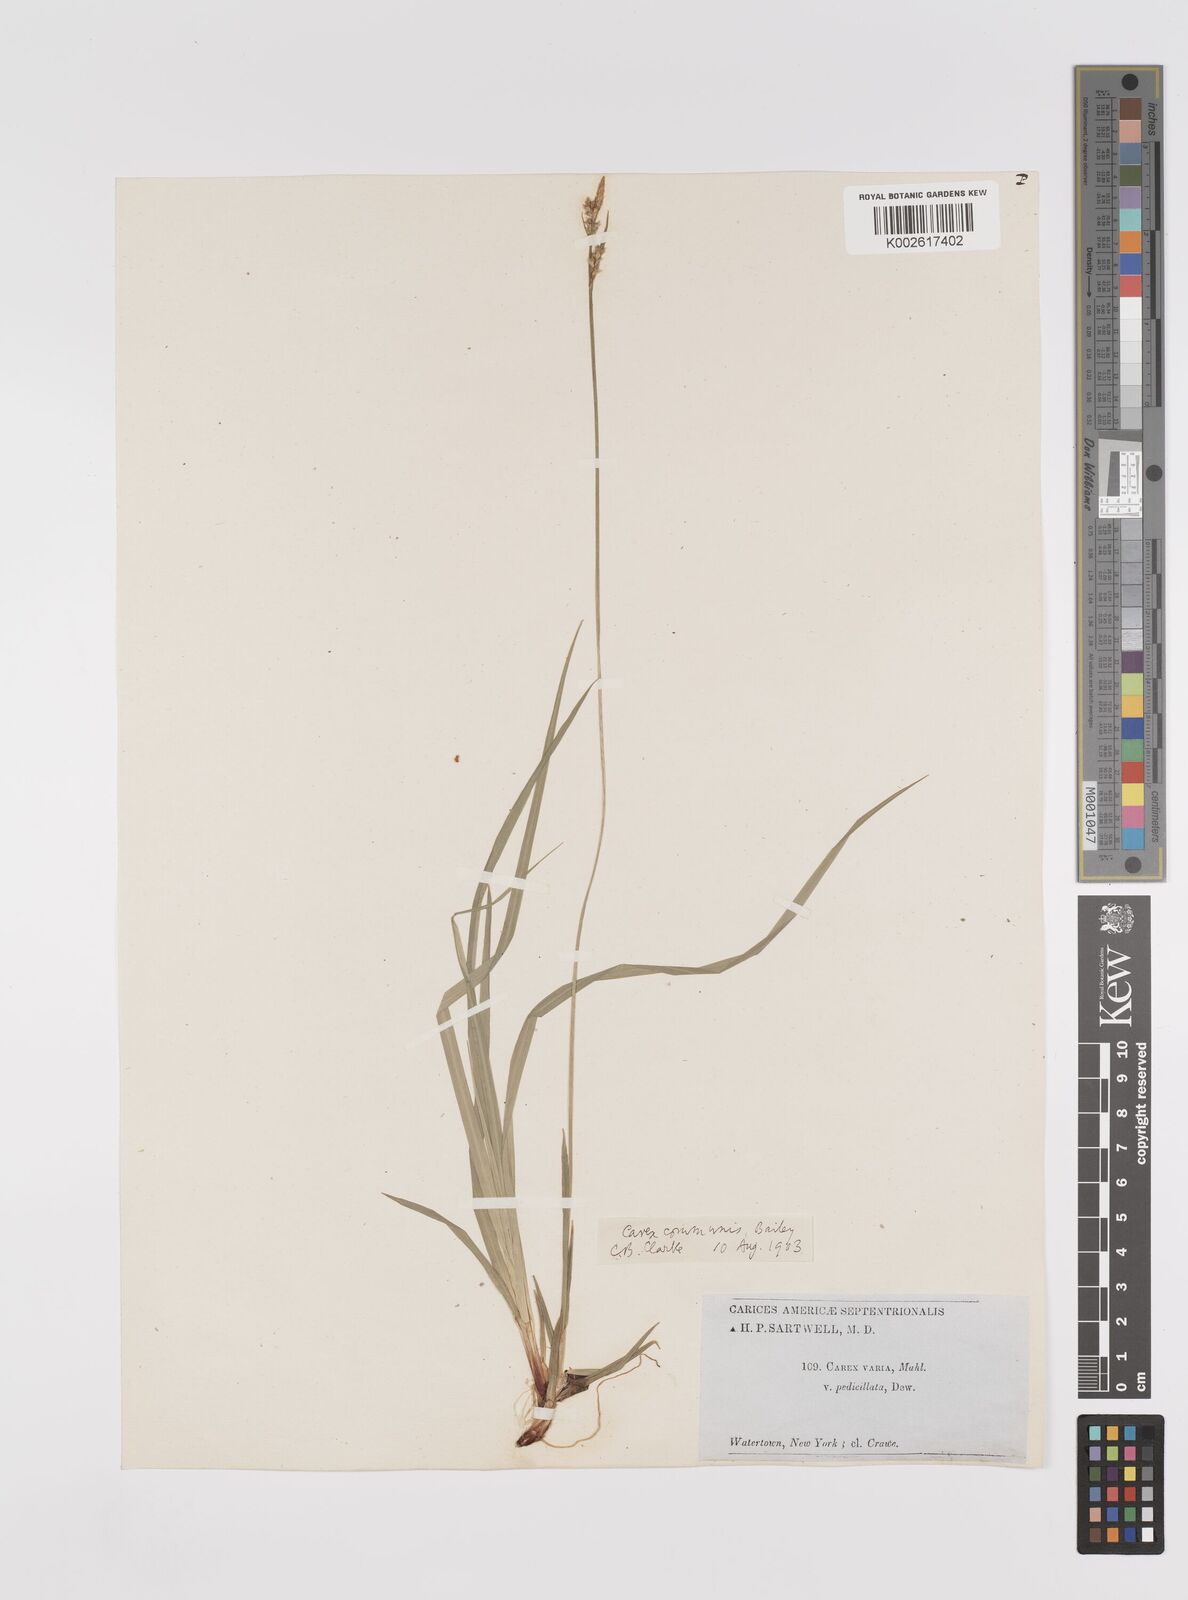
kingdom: Plantae
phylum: Tracheophyta
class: Liliopsida
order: Poales
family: Cyperaceae
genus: Carex
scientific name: Carex communis
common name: Colonial oak sedge
